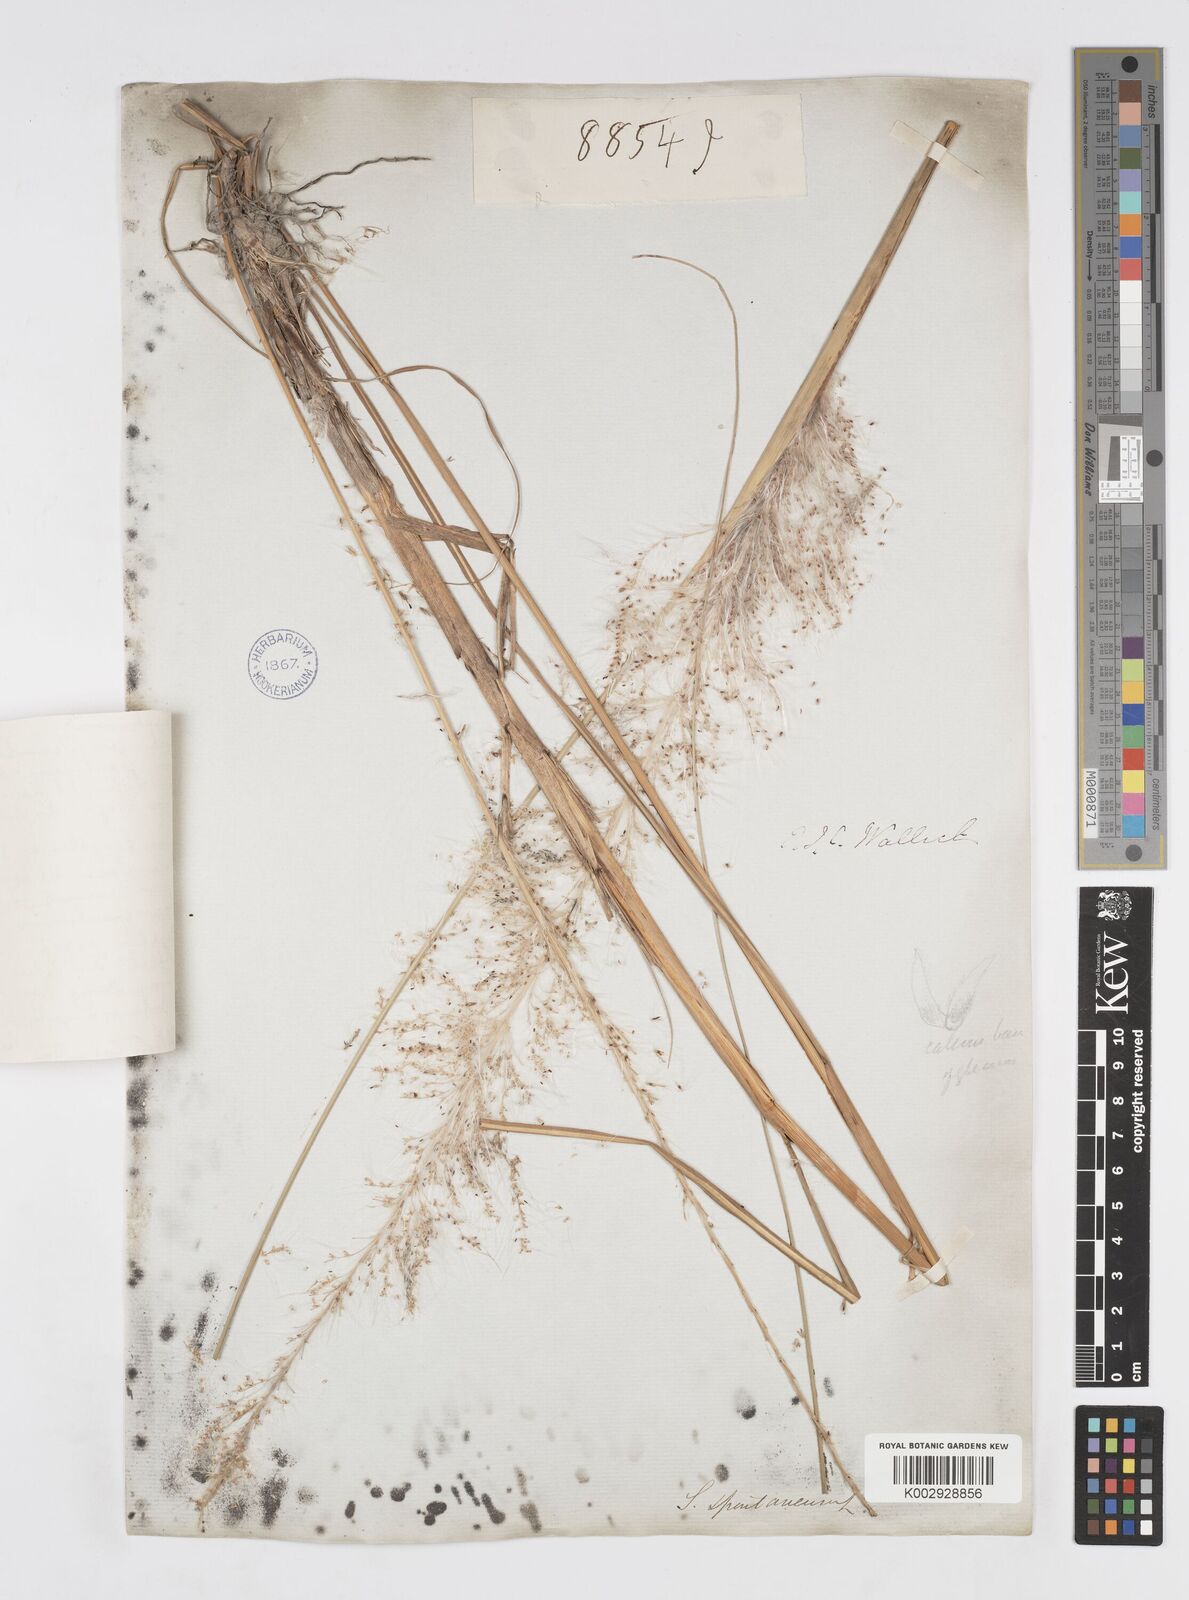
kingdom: Plantae
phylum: Tracheophyta
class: Liliopsida
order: Poales
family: Poaceae
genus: Saccharum
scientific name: Saccharum spontaneum
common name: Wild sugarcane
